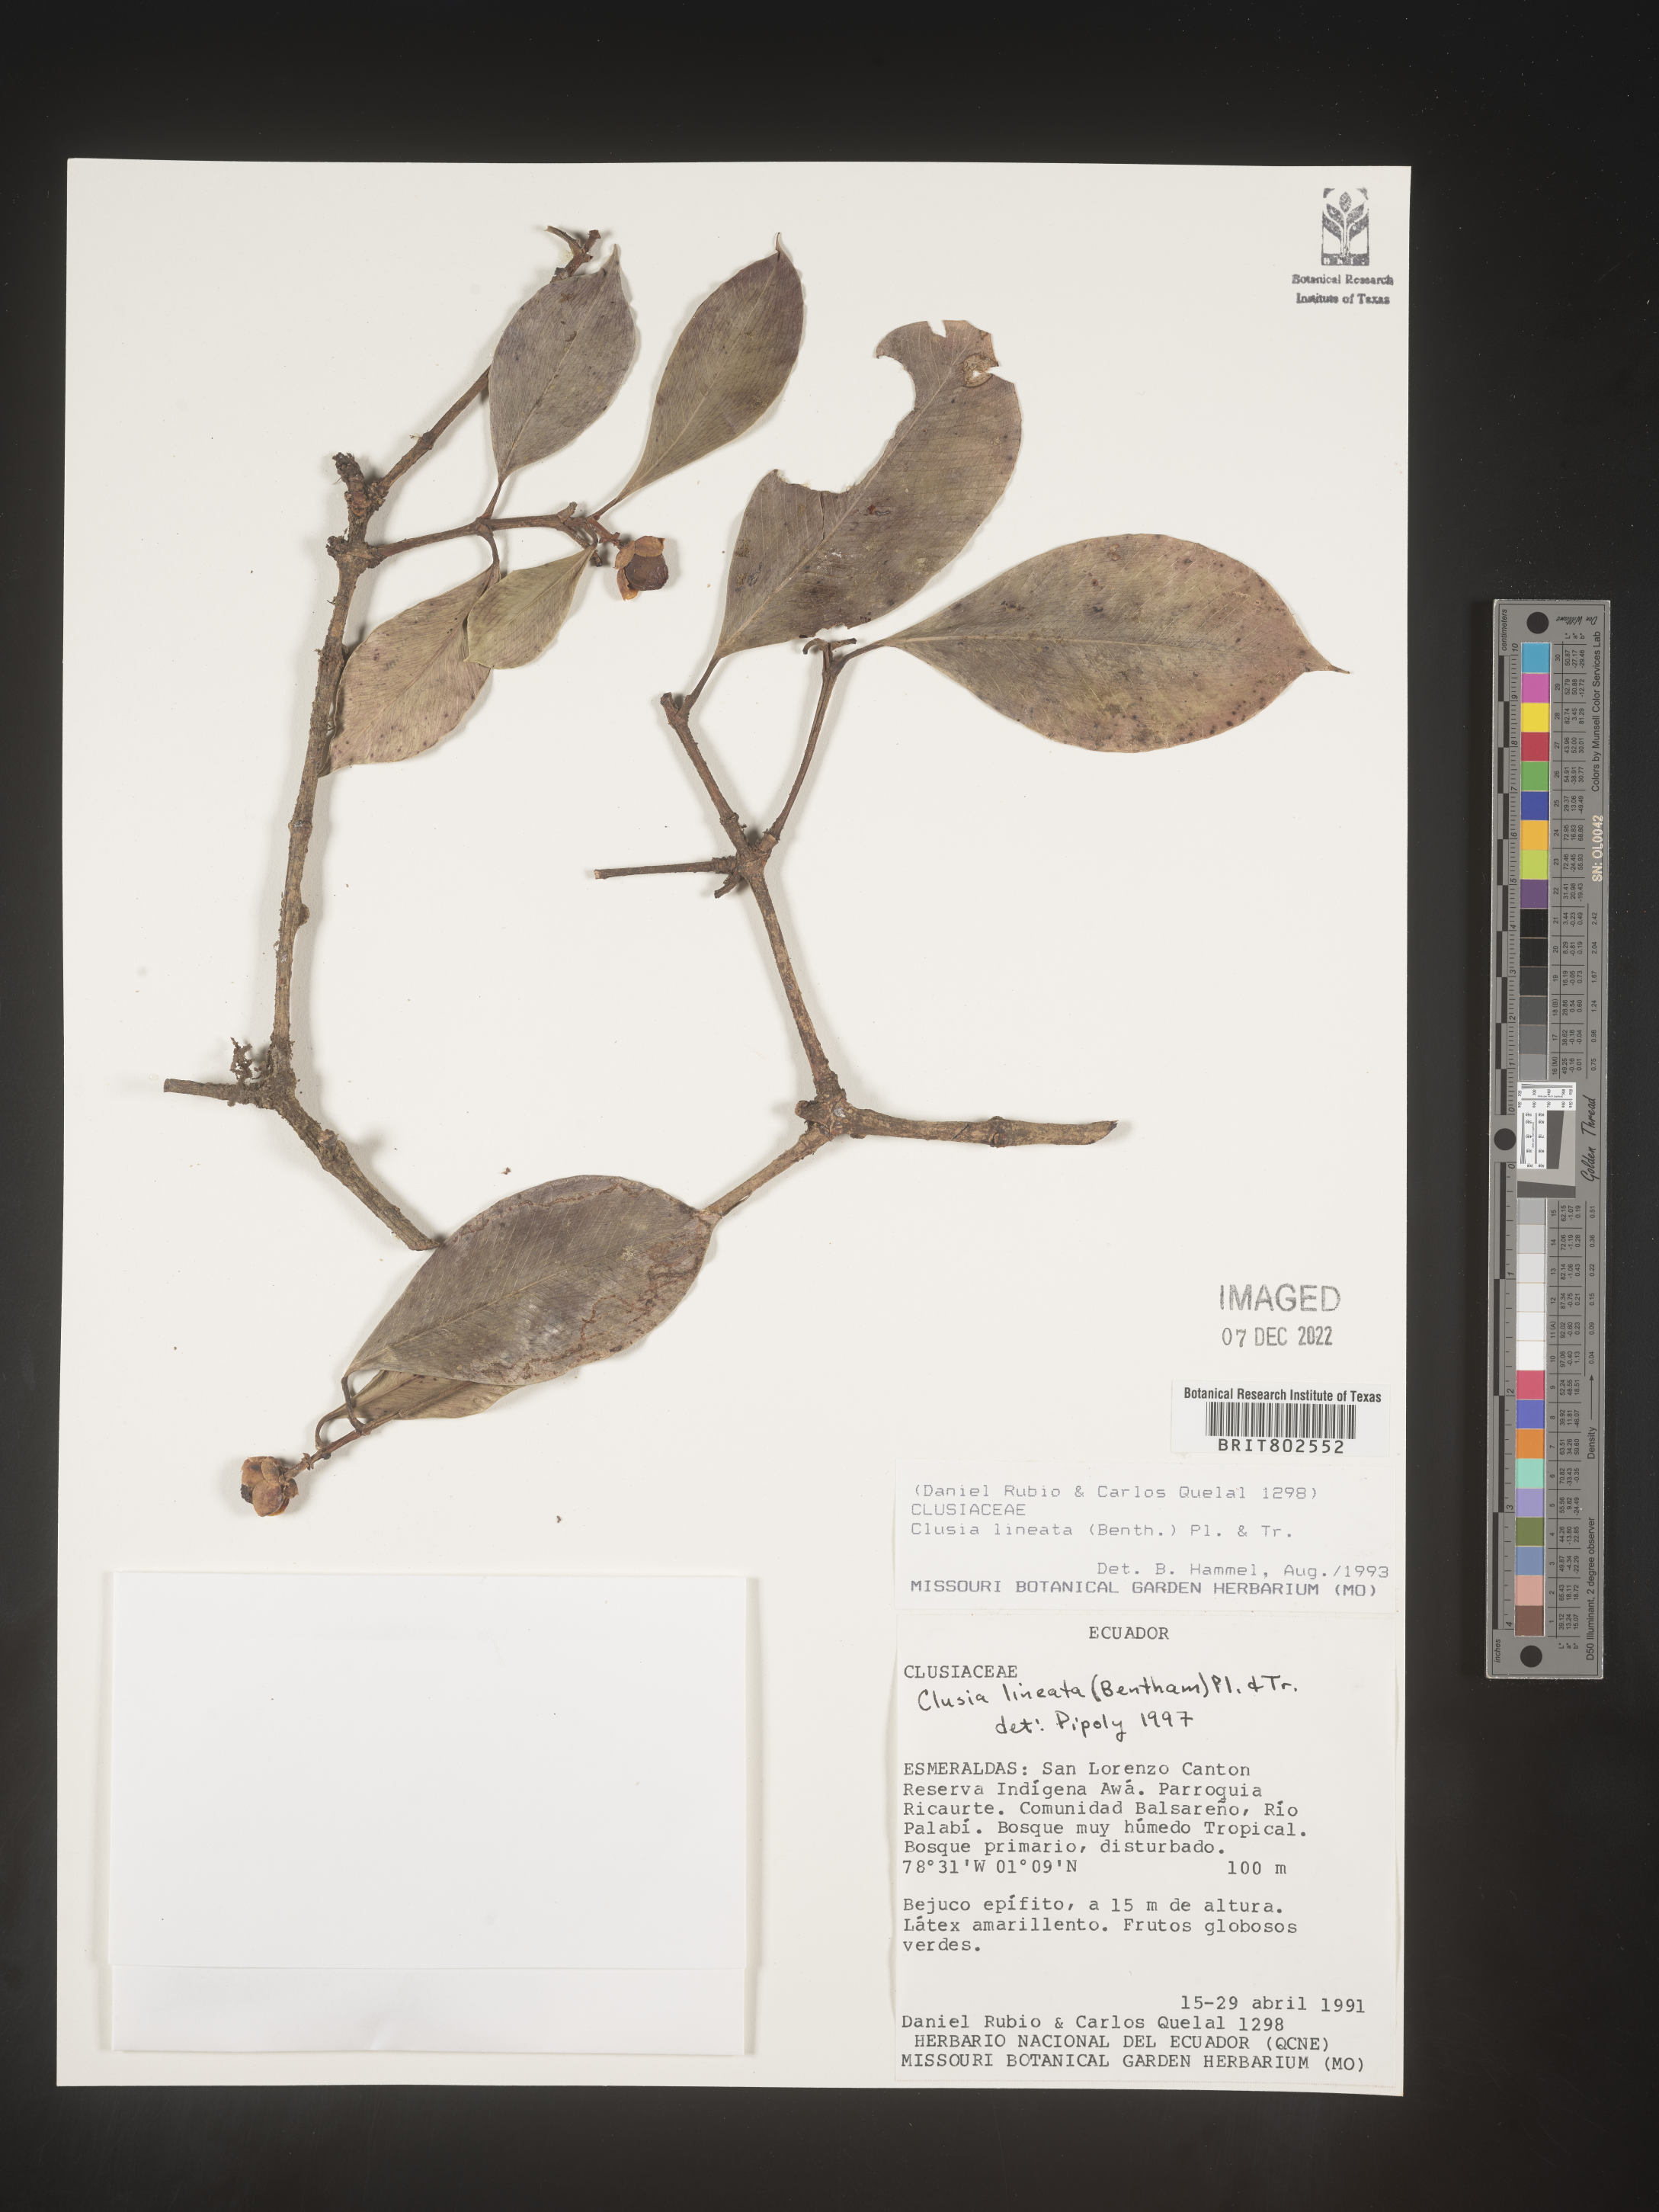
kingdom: Plantae
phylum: Tracheophyta
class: Magnoliopsida
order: Malpighiales
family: Clusiaceae
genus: Clusia
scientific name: Clusia loranthacea
